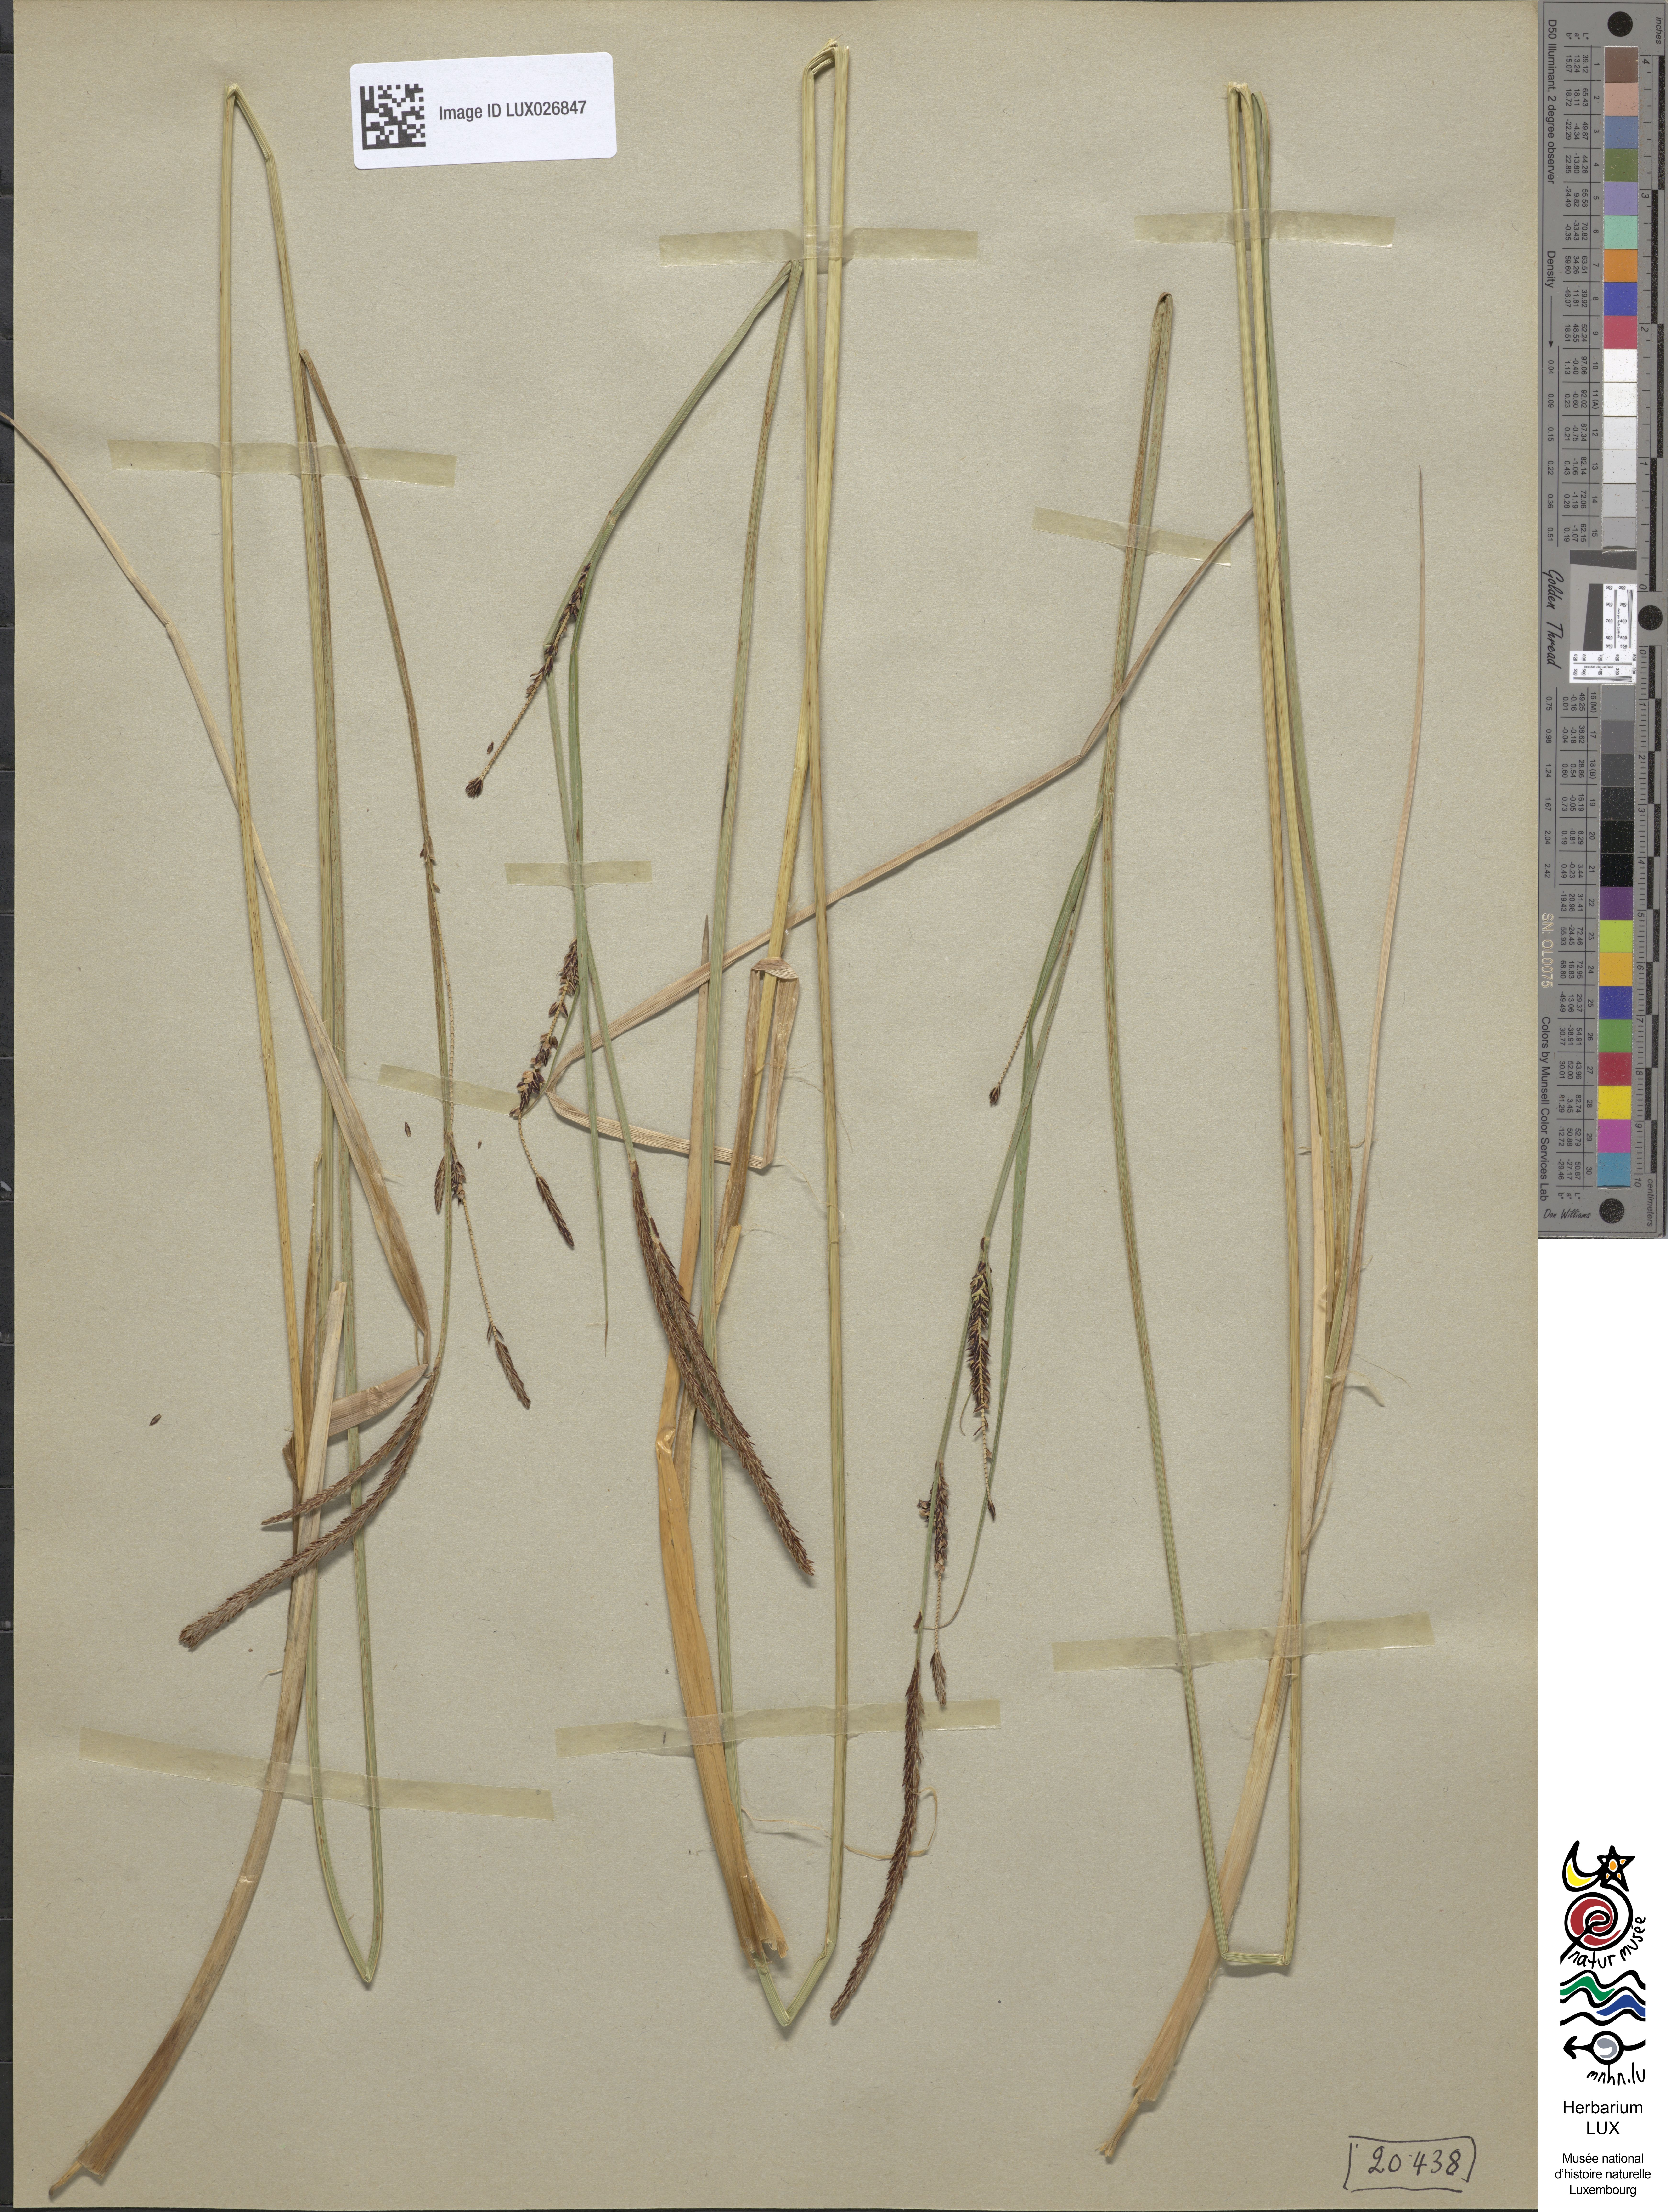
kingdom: Plantae
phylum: Tracheophyta
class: Liliopsida
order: Poales
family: Cyperaceae
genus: Carex
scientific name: Carex elata
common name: Tufted sedge
